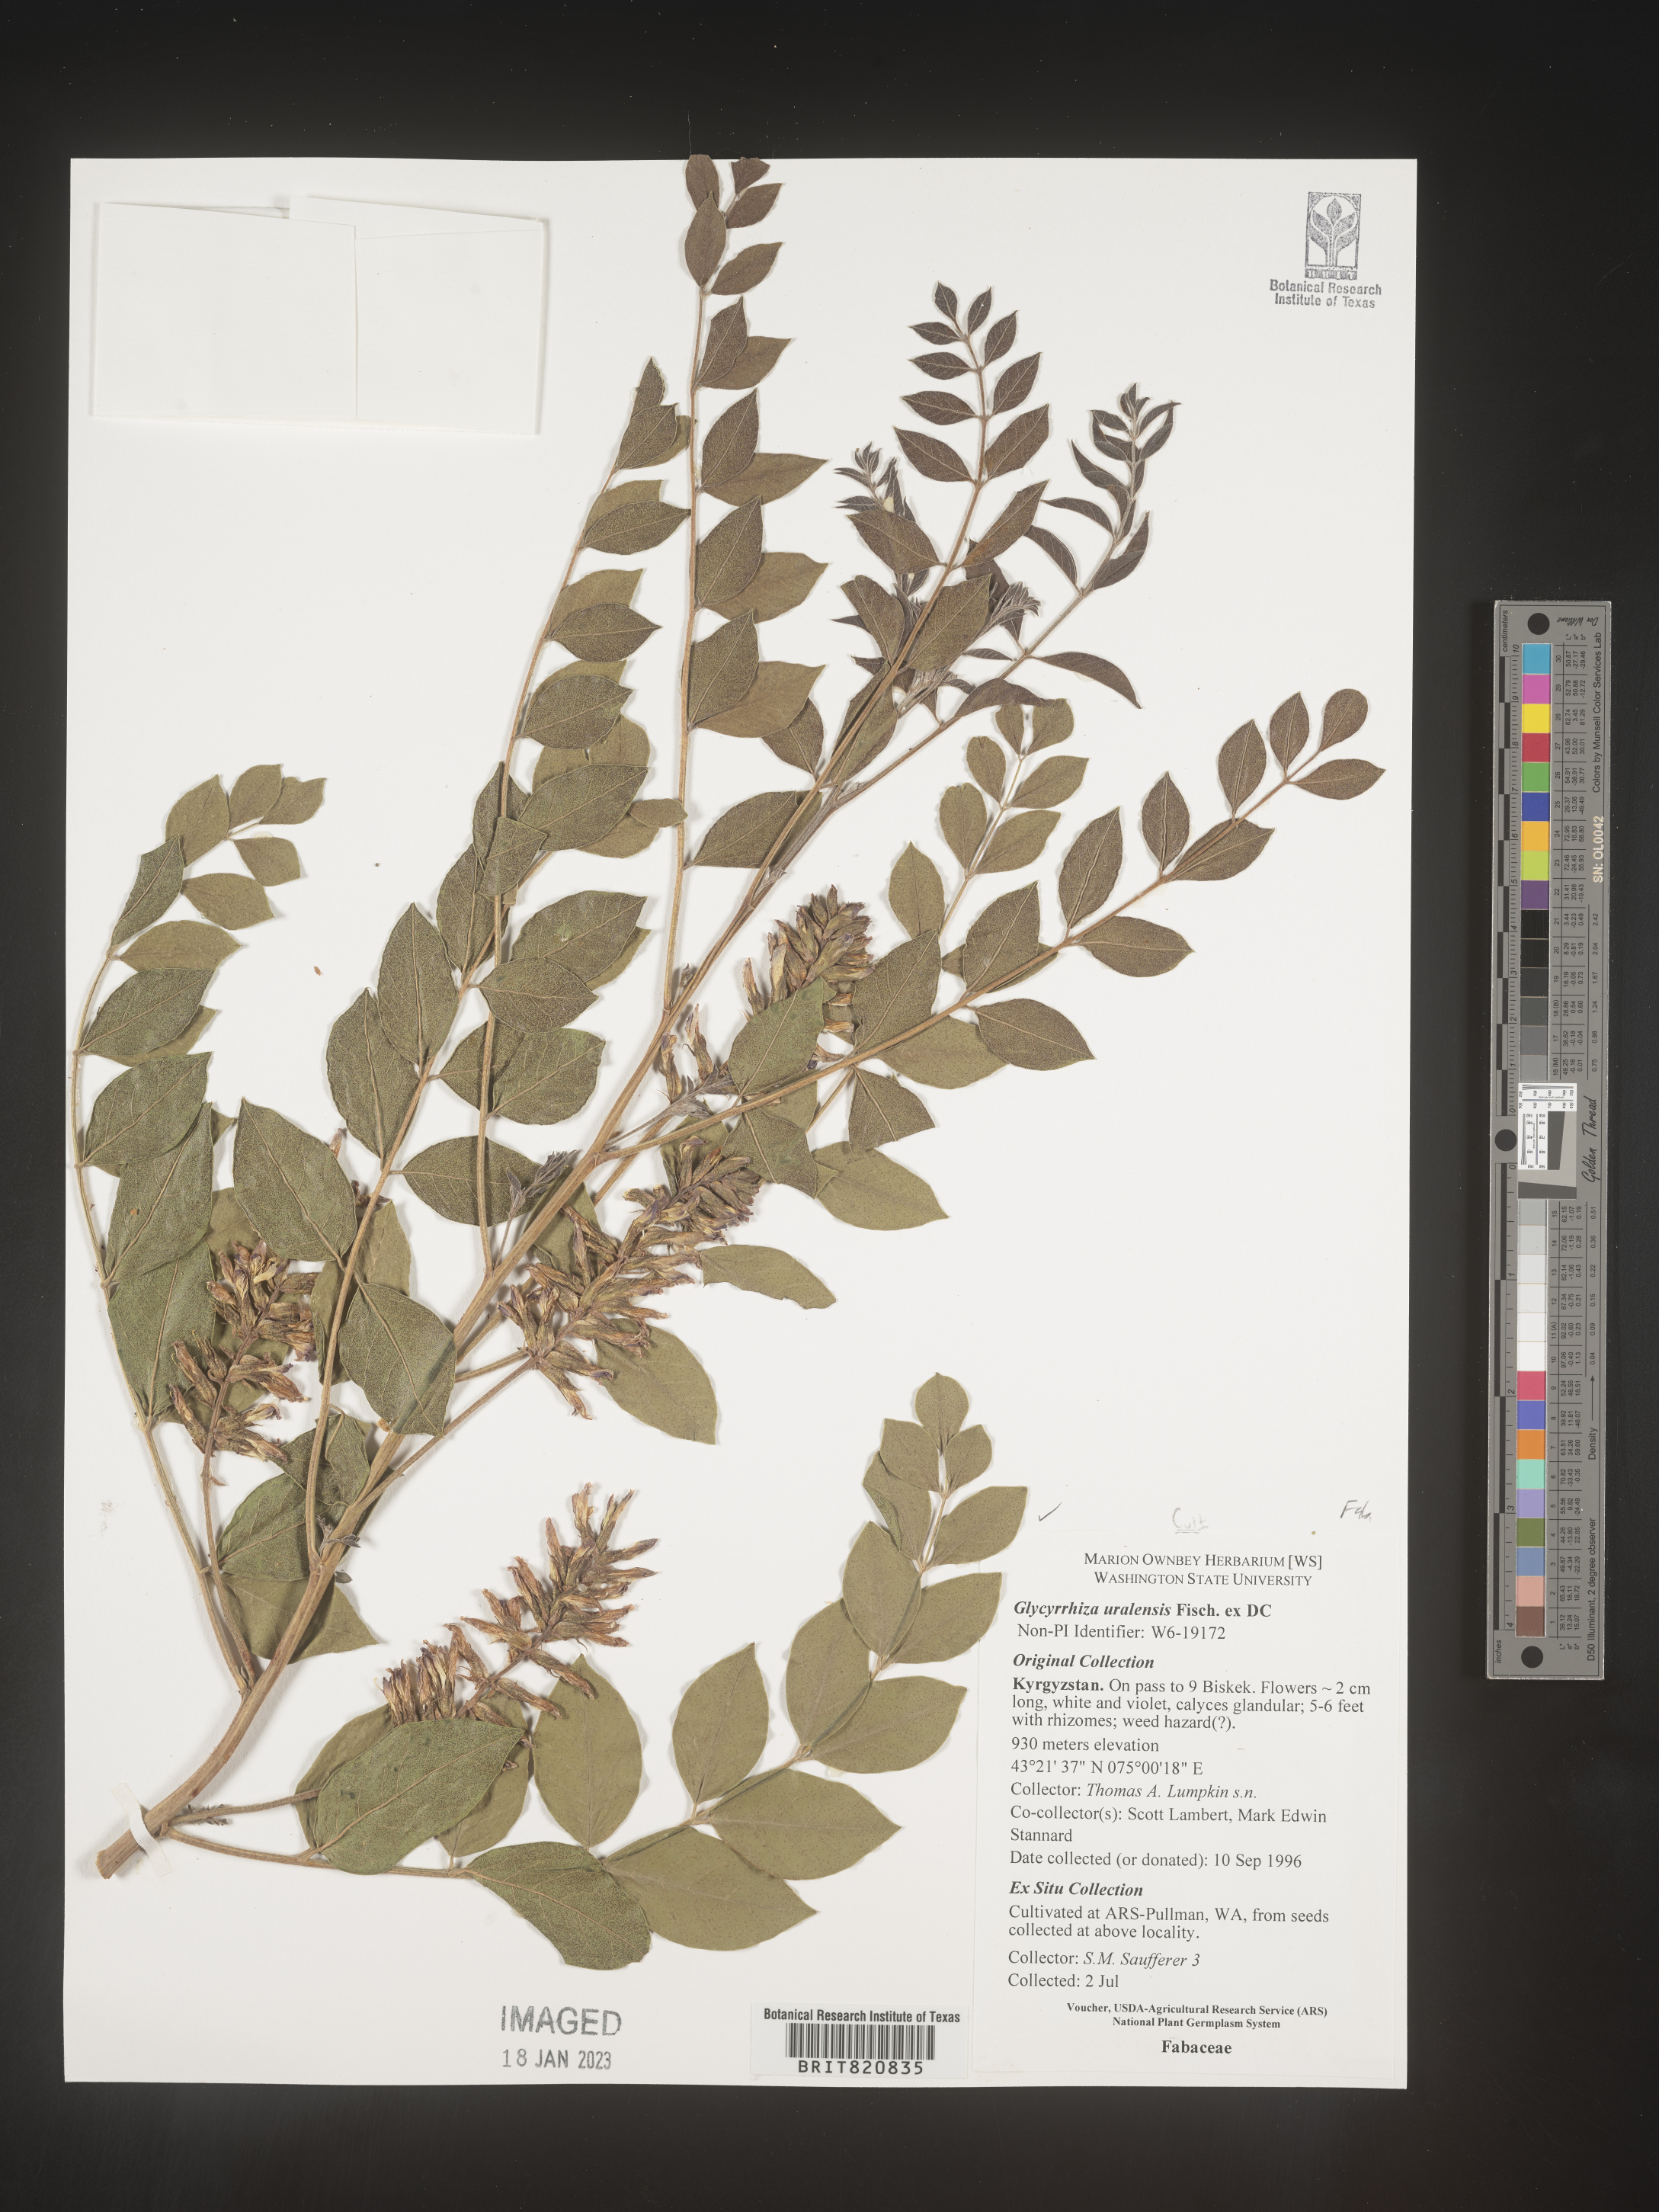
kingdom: Plantae
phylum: Tracheophyta
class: Magnoliopsida
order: Fabales
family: Fabaceae
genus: Glycyrrhiza
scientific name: Glycyrrhiza
